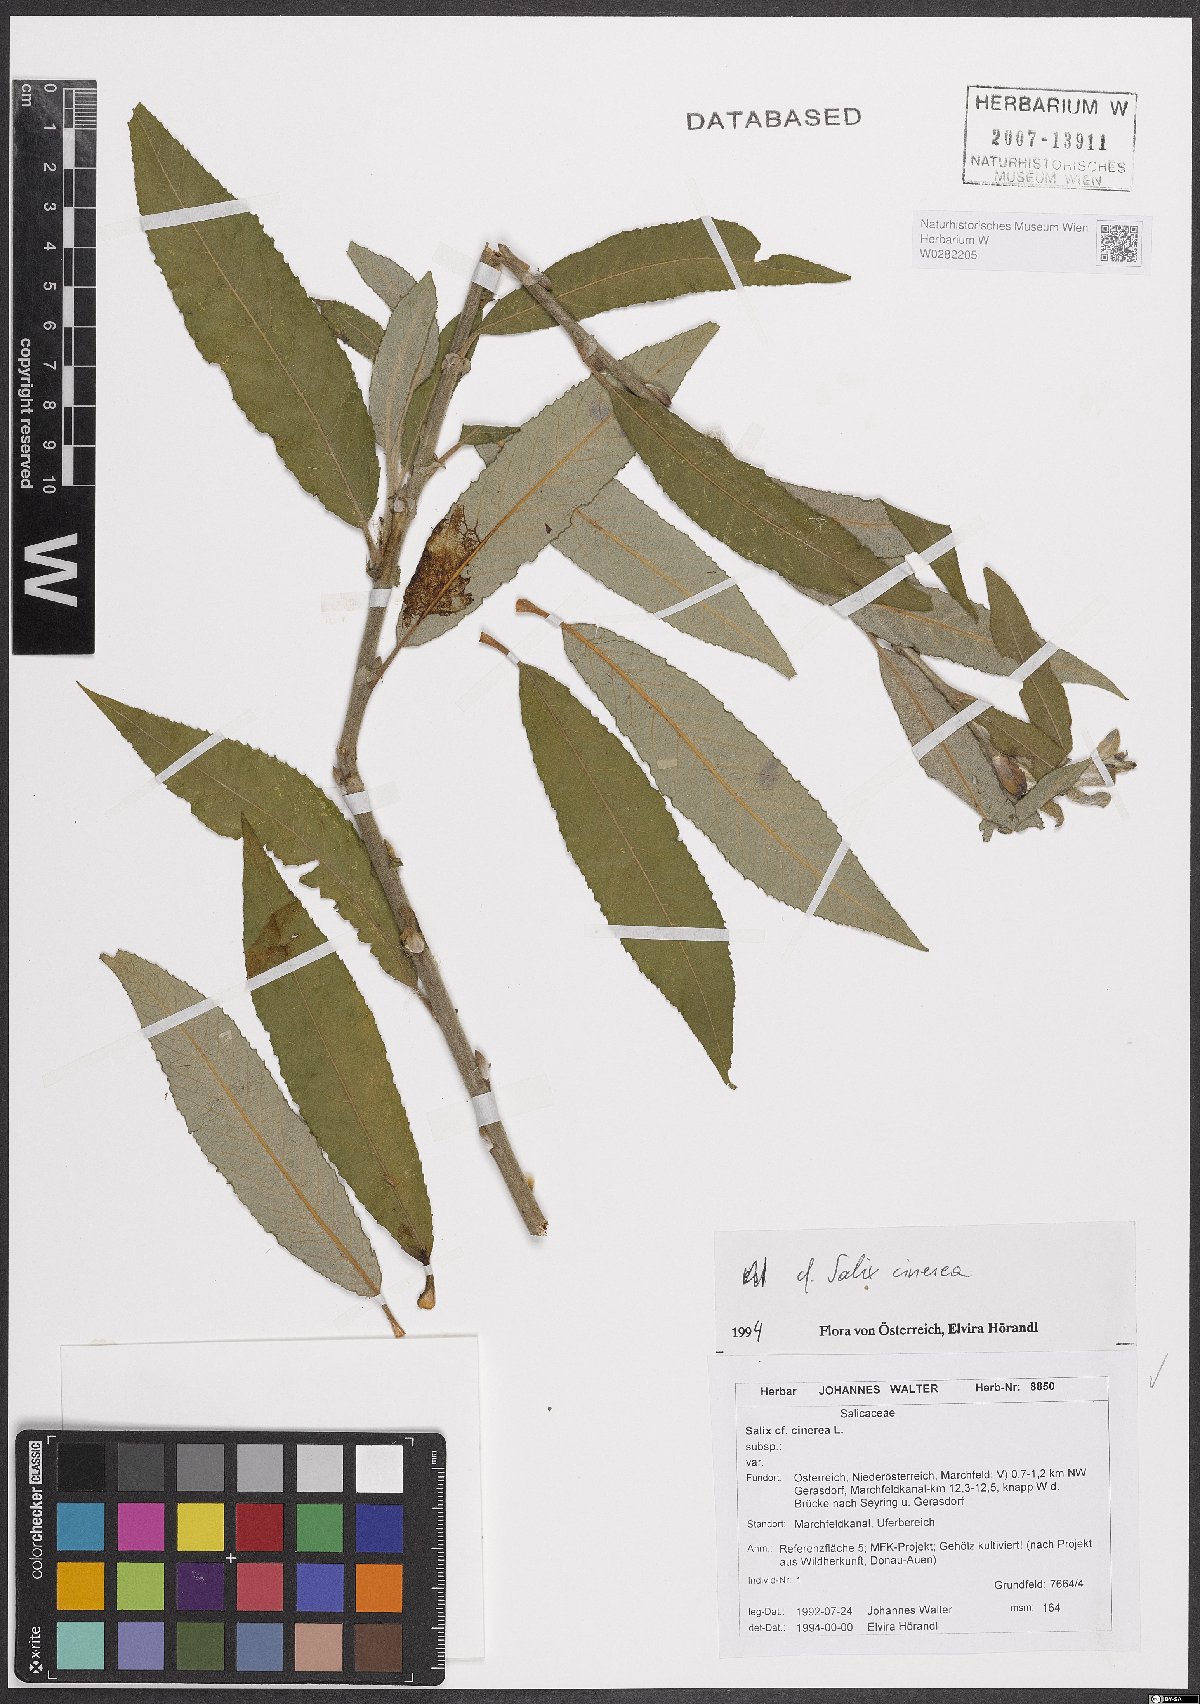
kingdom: Plantae
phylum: Tracheophyta
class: Magnoliopsida
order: Malpighiales
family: Salicaceae
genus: Salix
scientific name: Salix cinerea
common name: Common sallow
